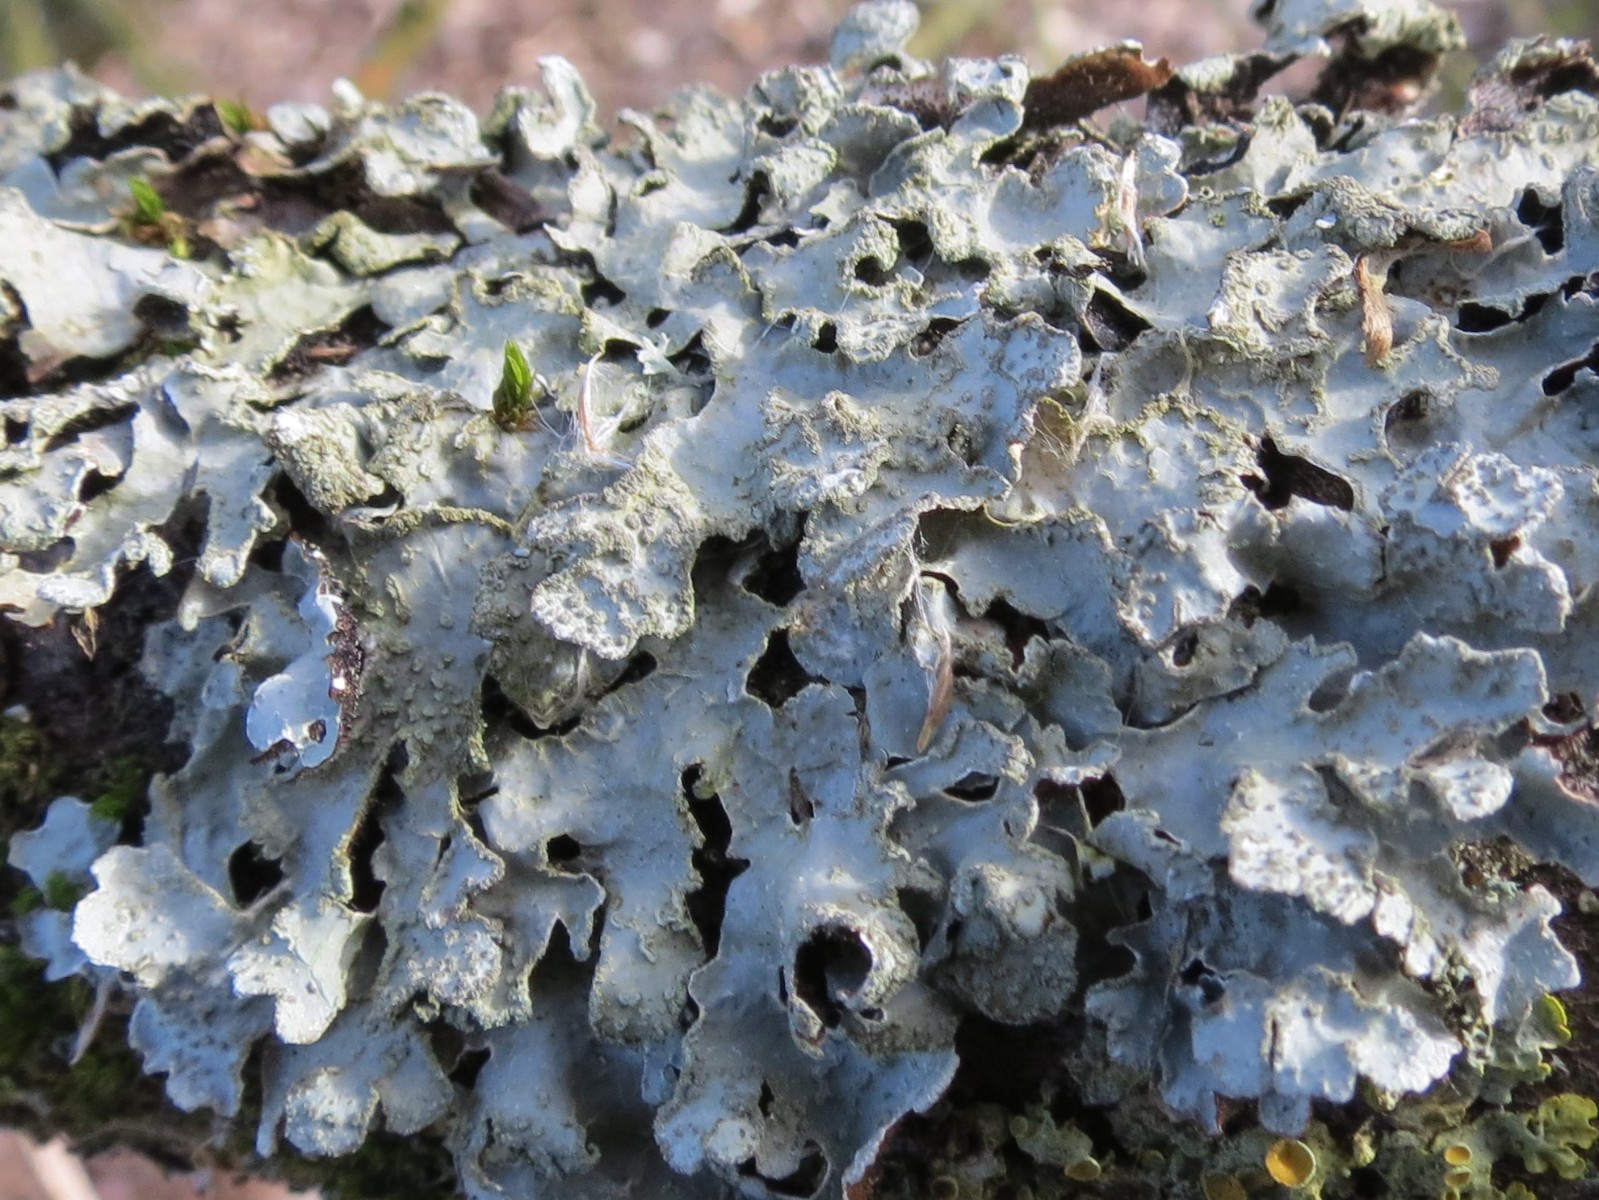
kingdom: Fungi
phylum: Ascomycota
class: Lecanoromycetes
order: Lecanorales
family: Parmeliaceae
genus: Parmelia
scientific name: Parmelia sulcata
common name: rynket skållav
